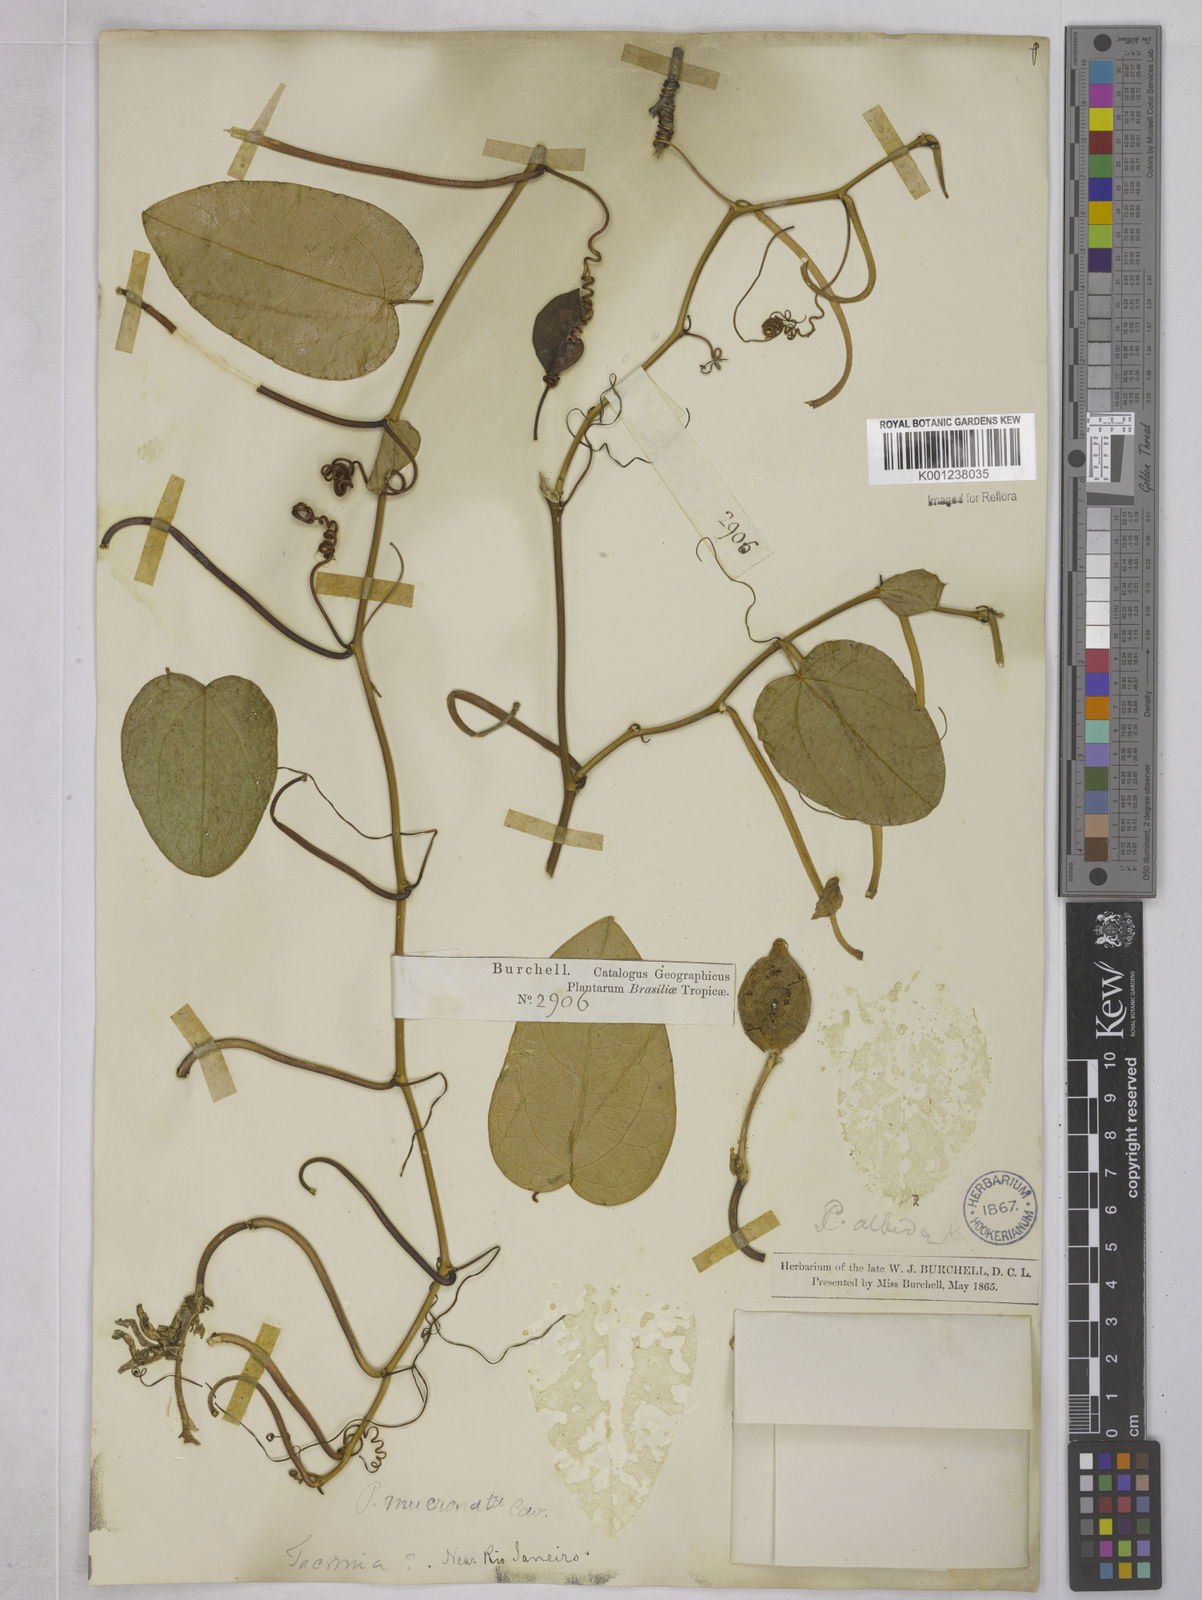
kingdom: Plantae
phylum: Tracheophyta
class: Magnoliopsida
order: Malpighiales
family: Passifloraceae
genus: Passiflora
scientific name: Passiflora mucronata
